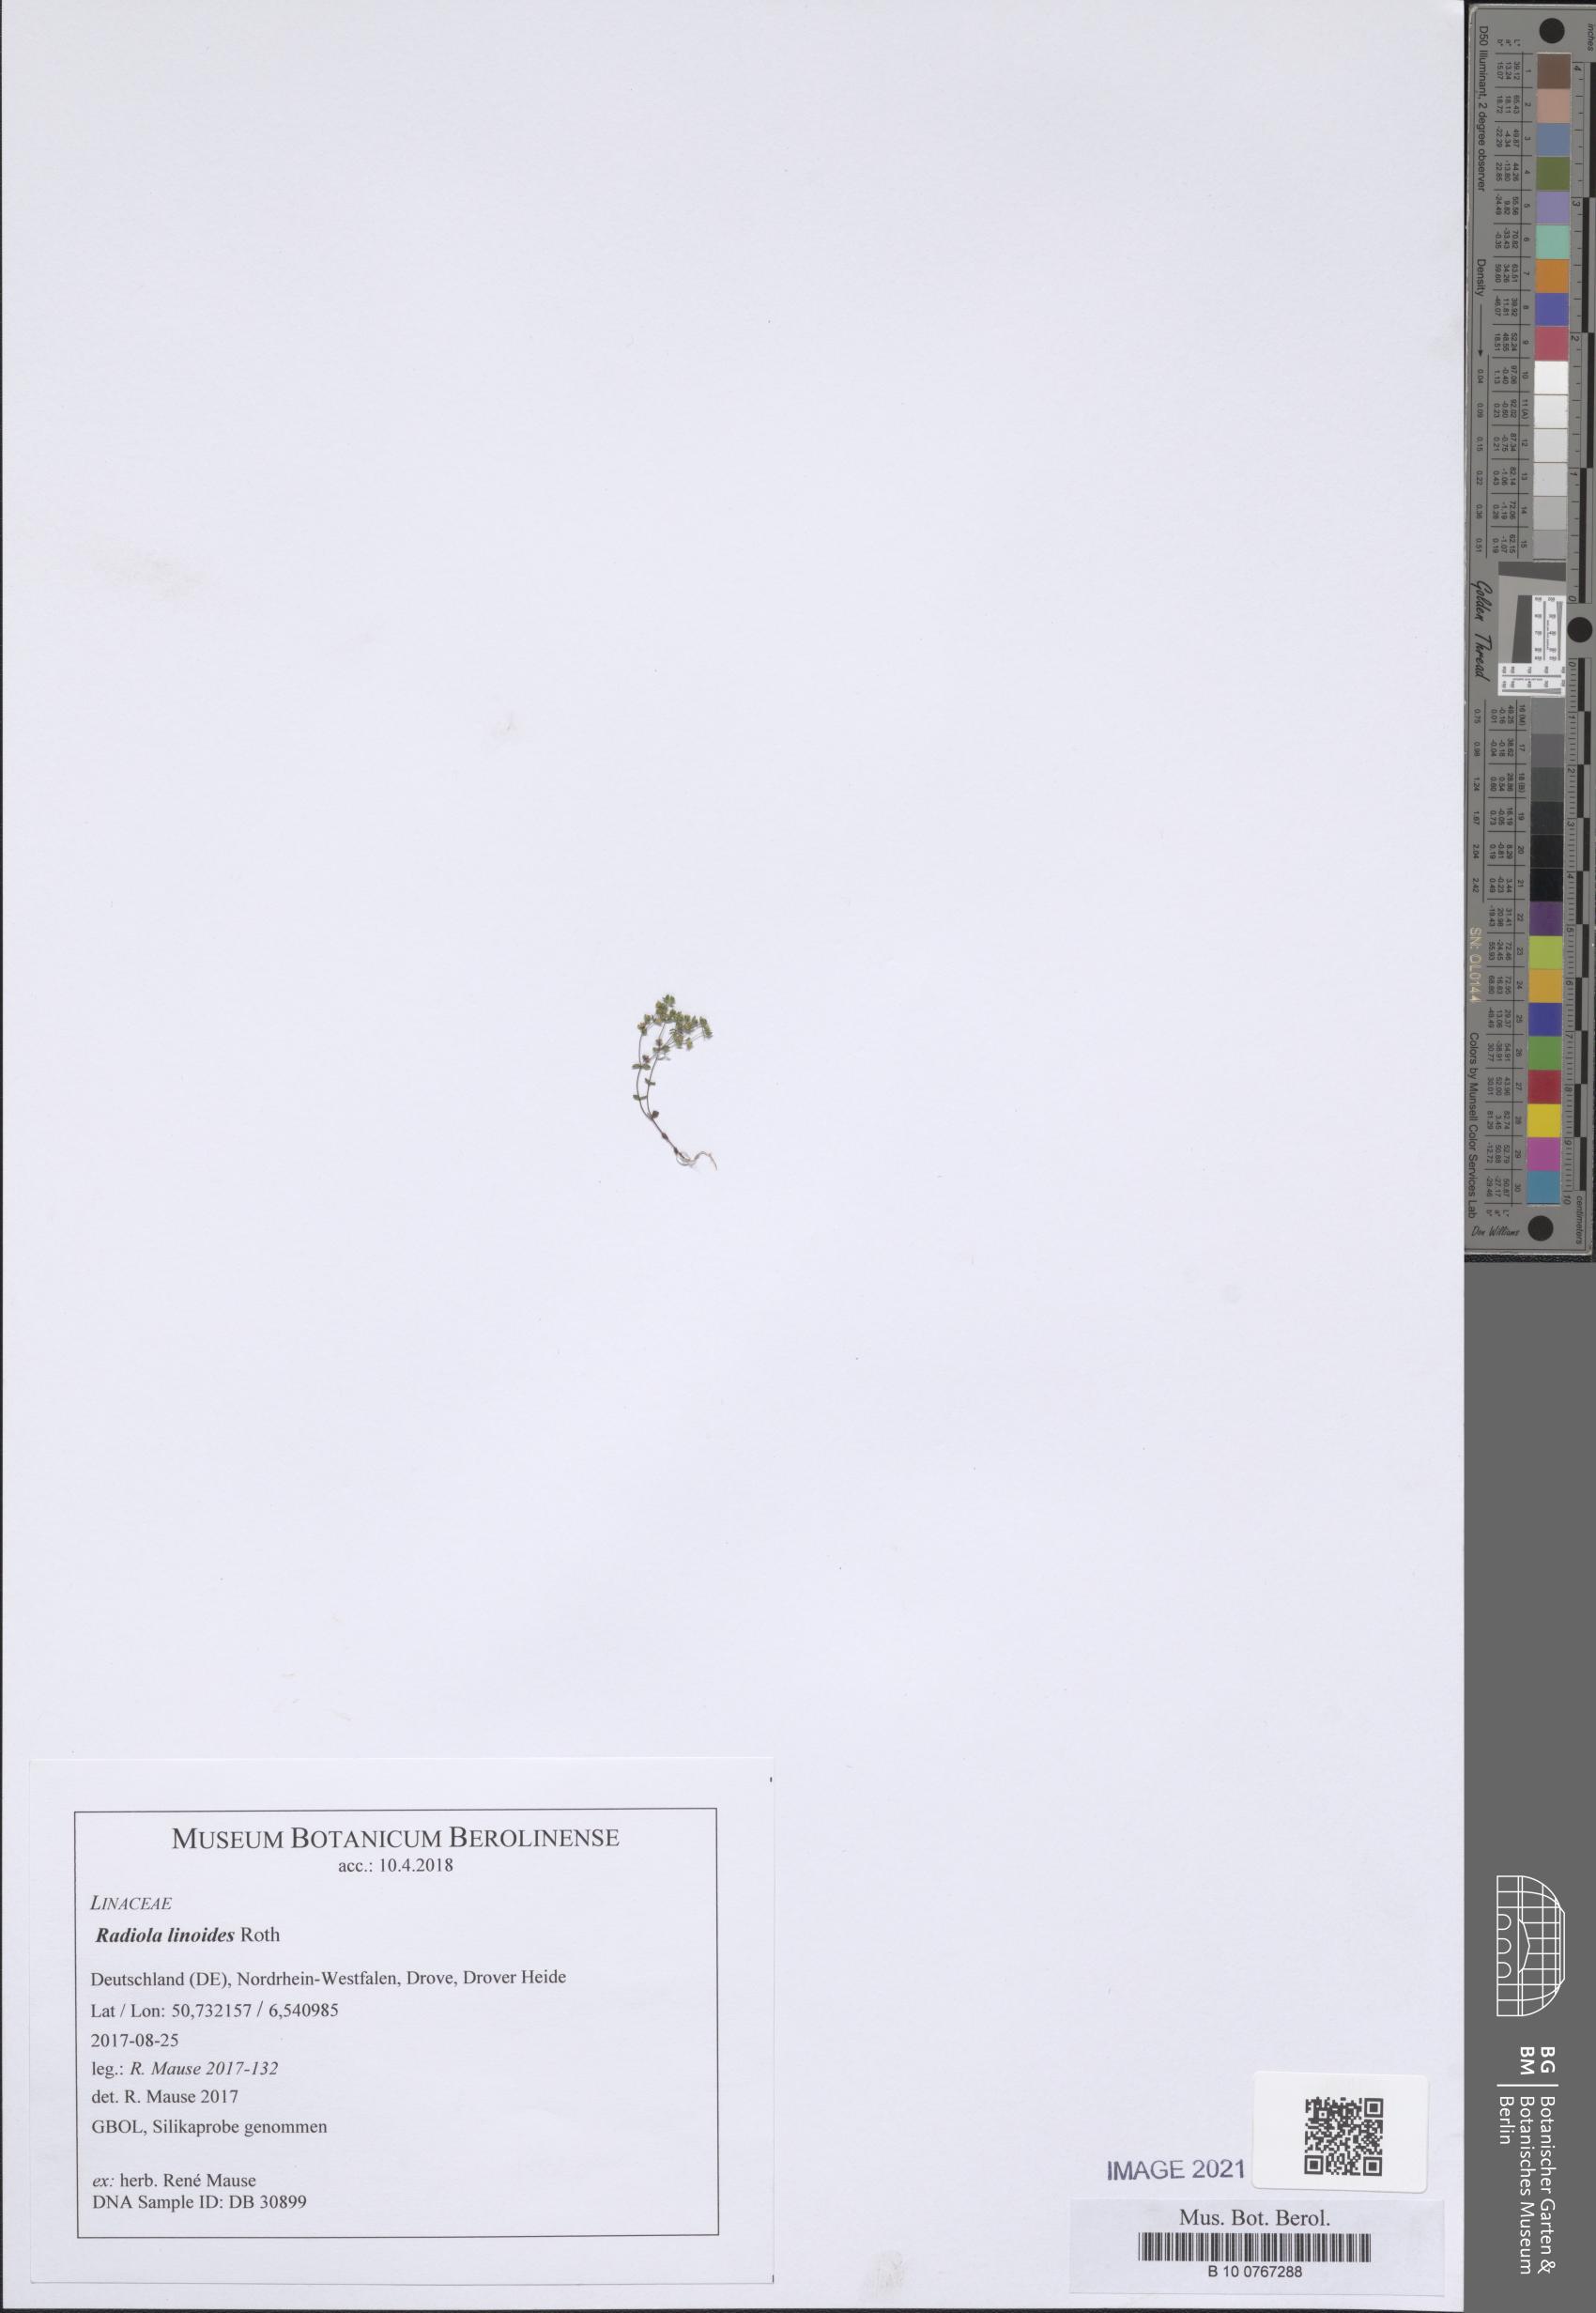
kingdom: Plantae
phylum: Tracheophyta
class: Magnoliopsida
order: Malpighiales
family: Linaceae
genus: Radiola
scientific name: Radiola linoides
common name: Allseed
